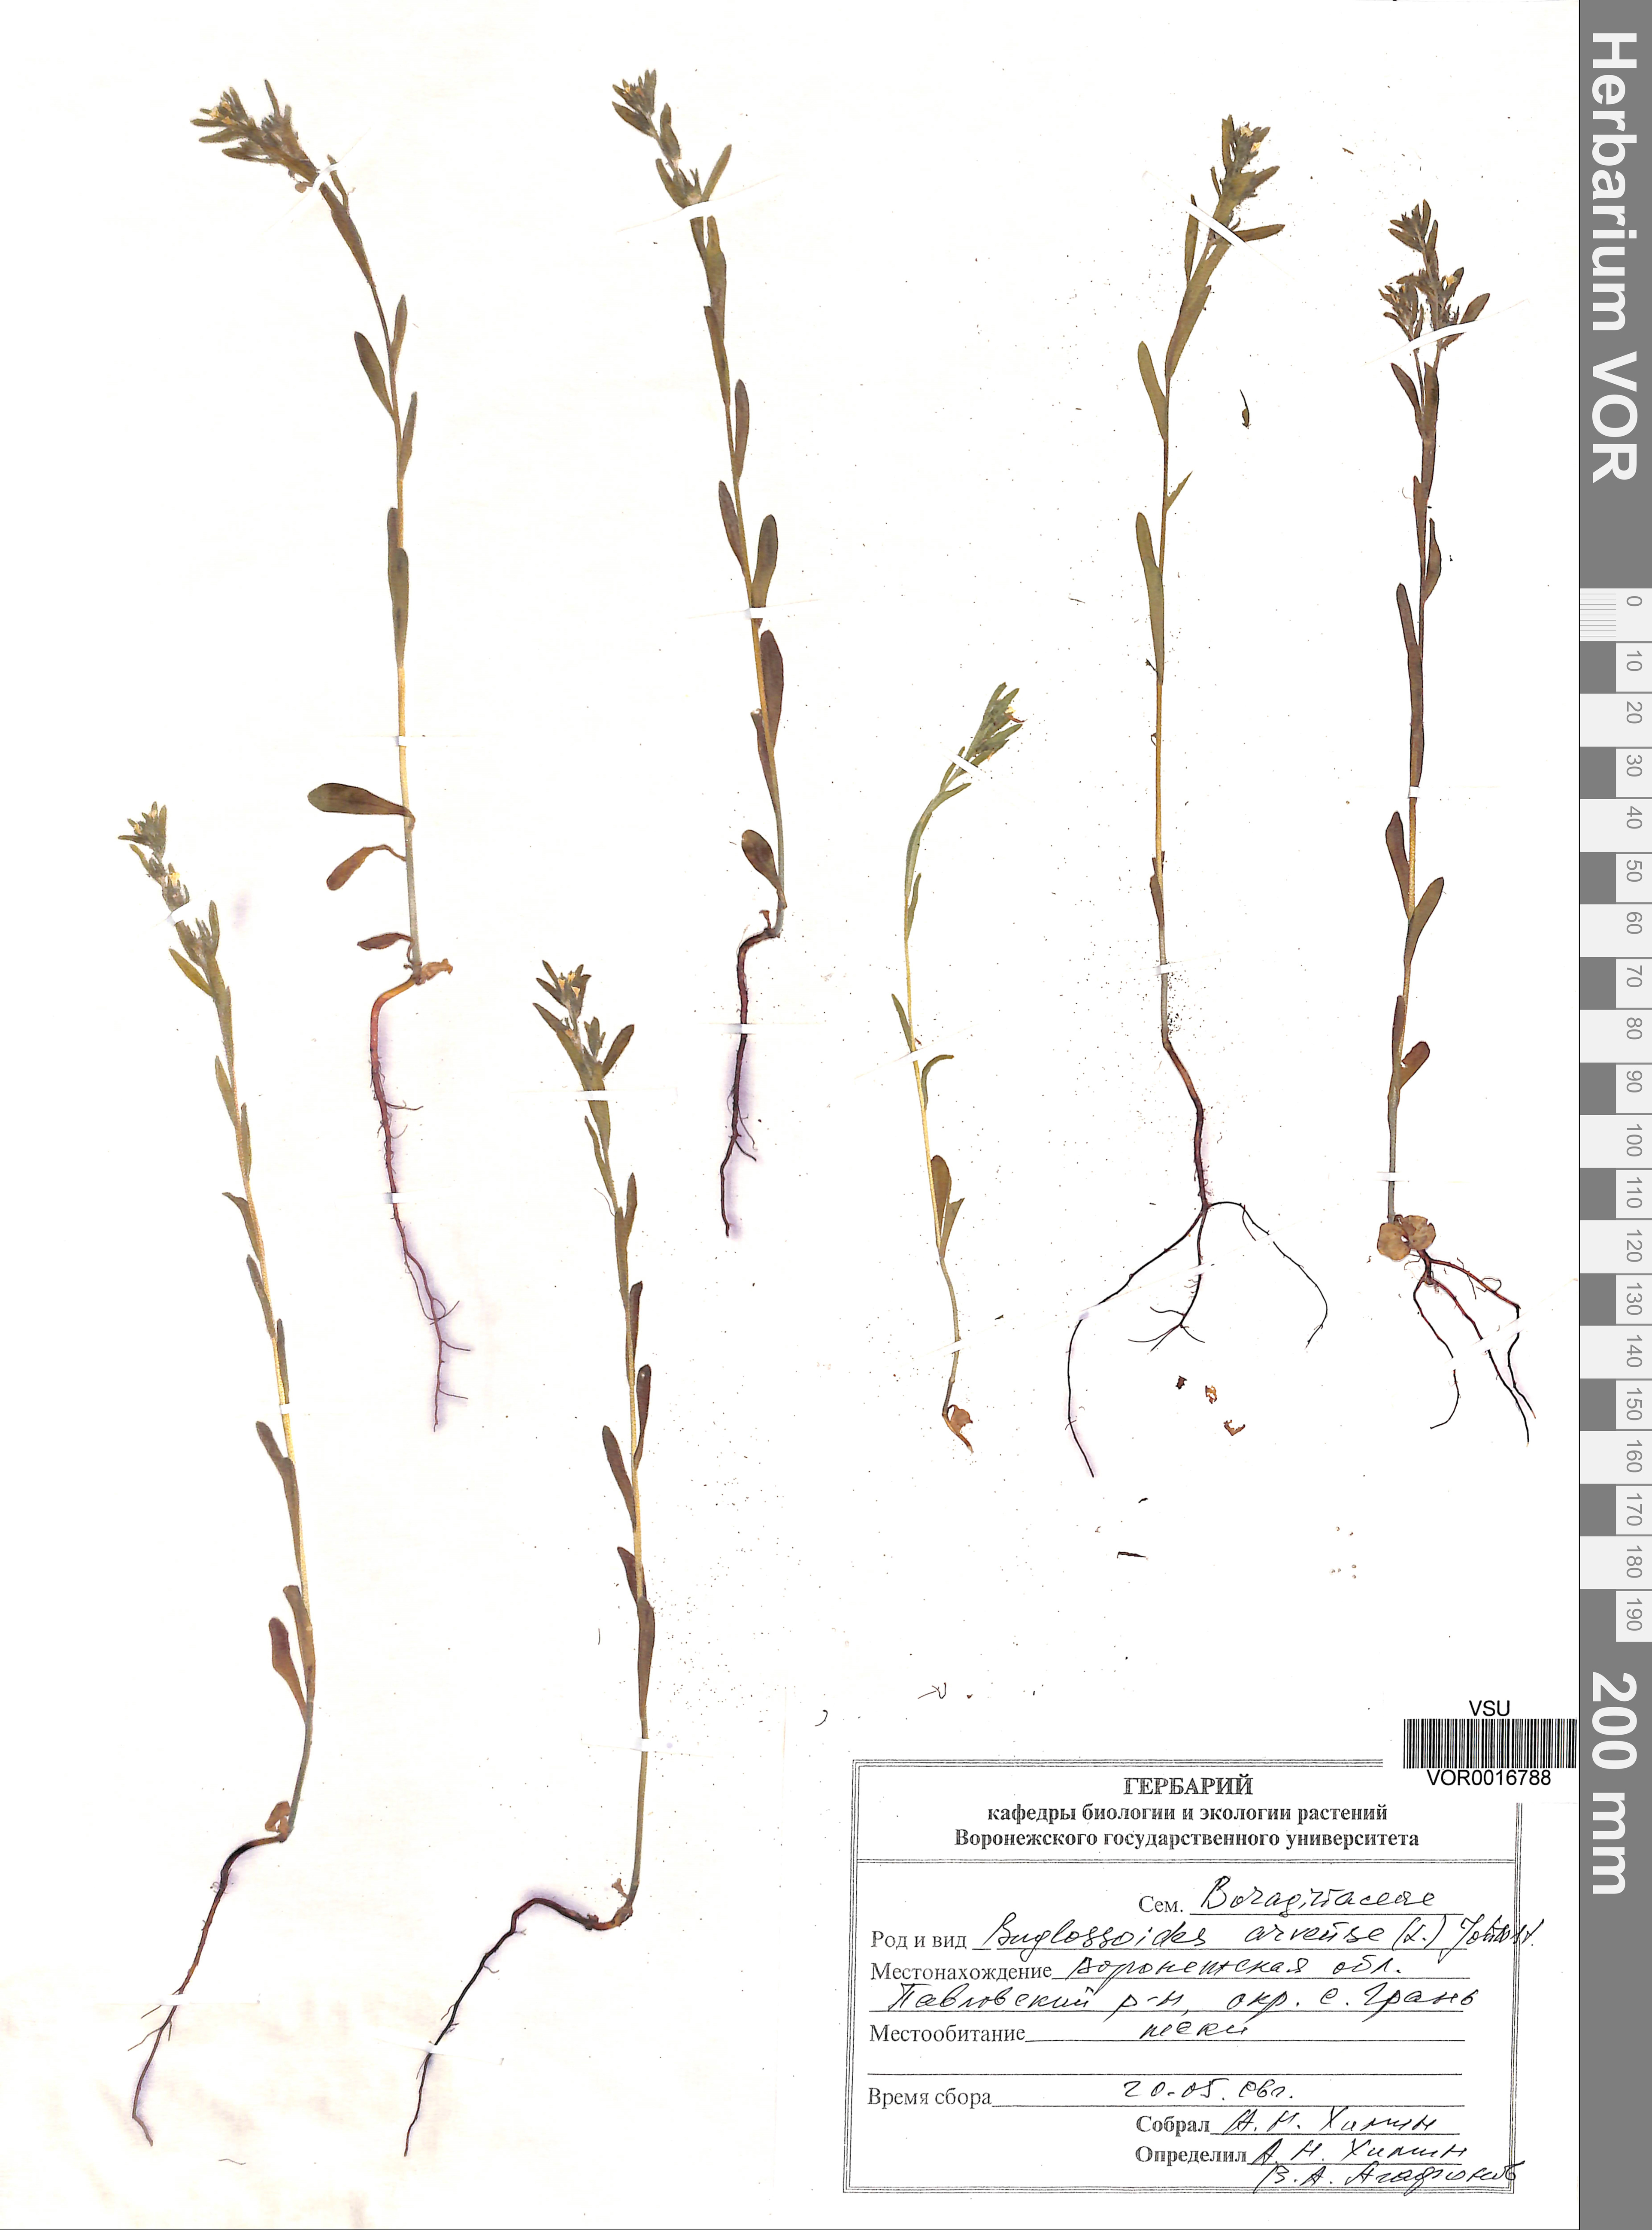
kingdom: Plantae
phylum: Tracheophyta
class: Magnoliopsida
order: Boraginales
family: Boraginaceae
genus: Buglossoides
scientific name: Buglossoides arvensis
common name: Corn gromwell
